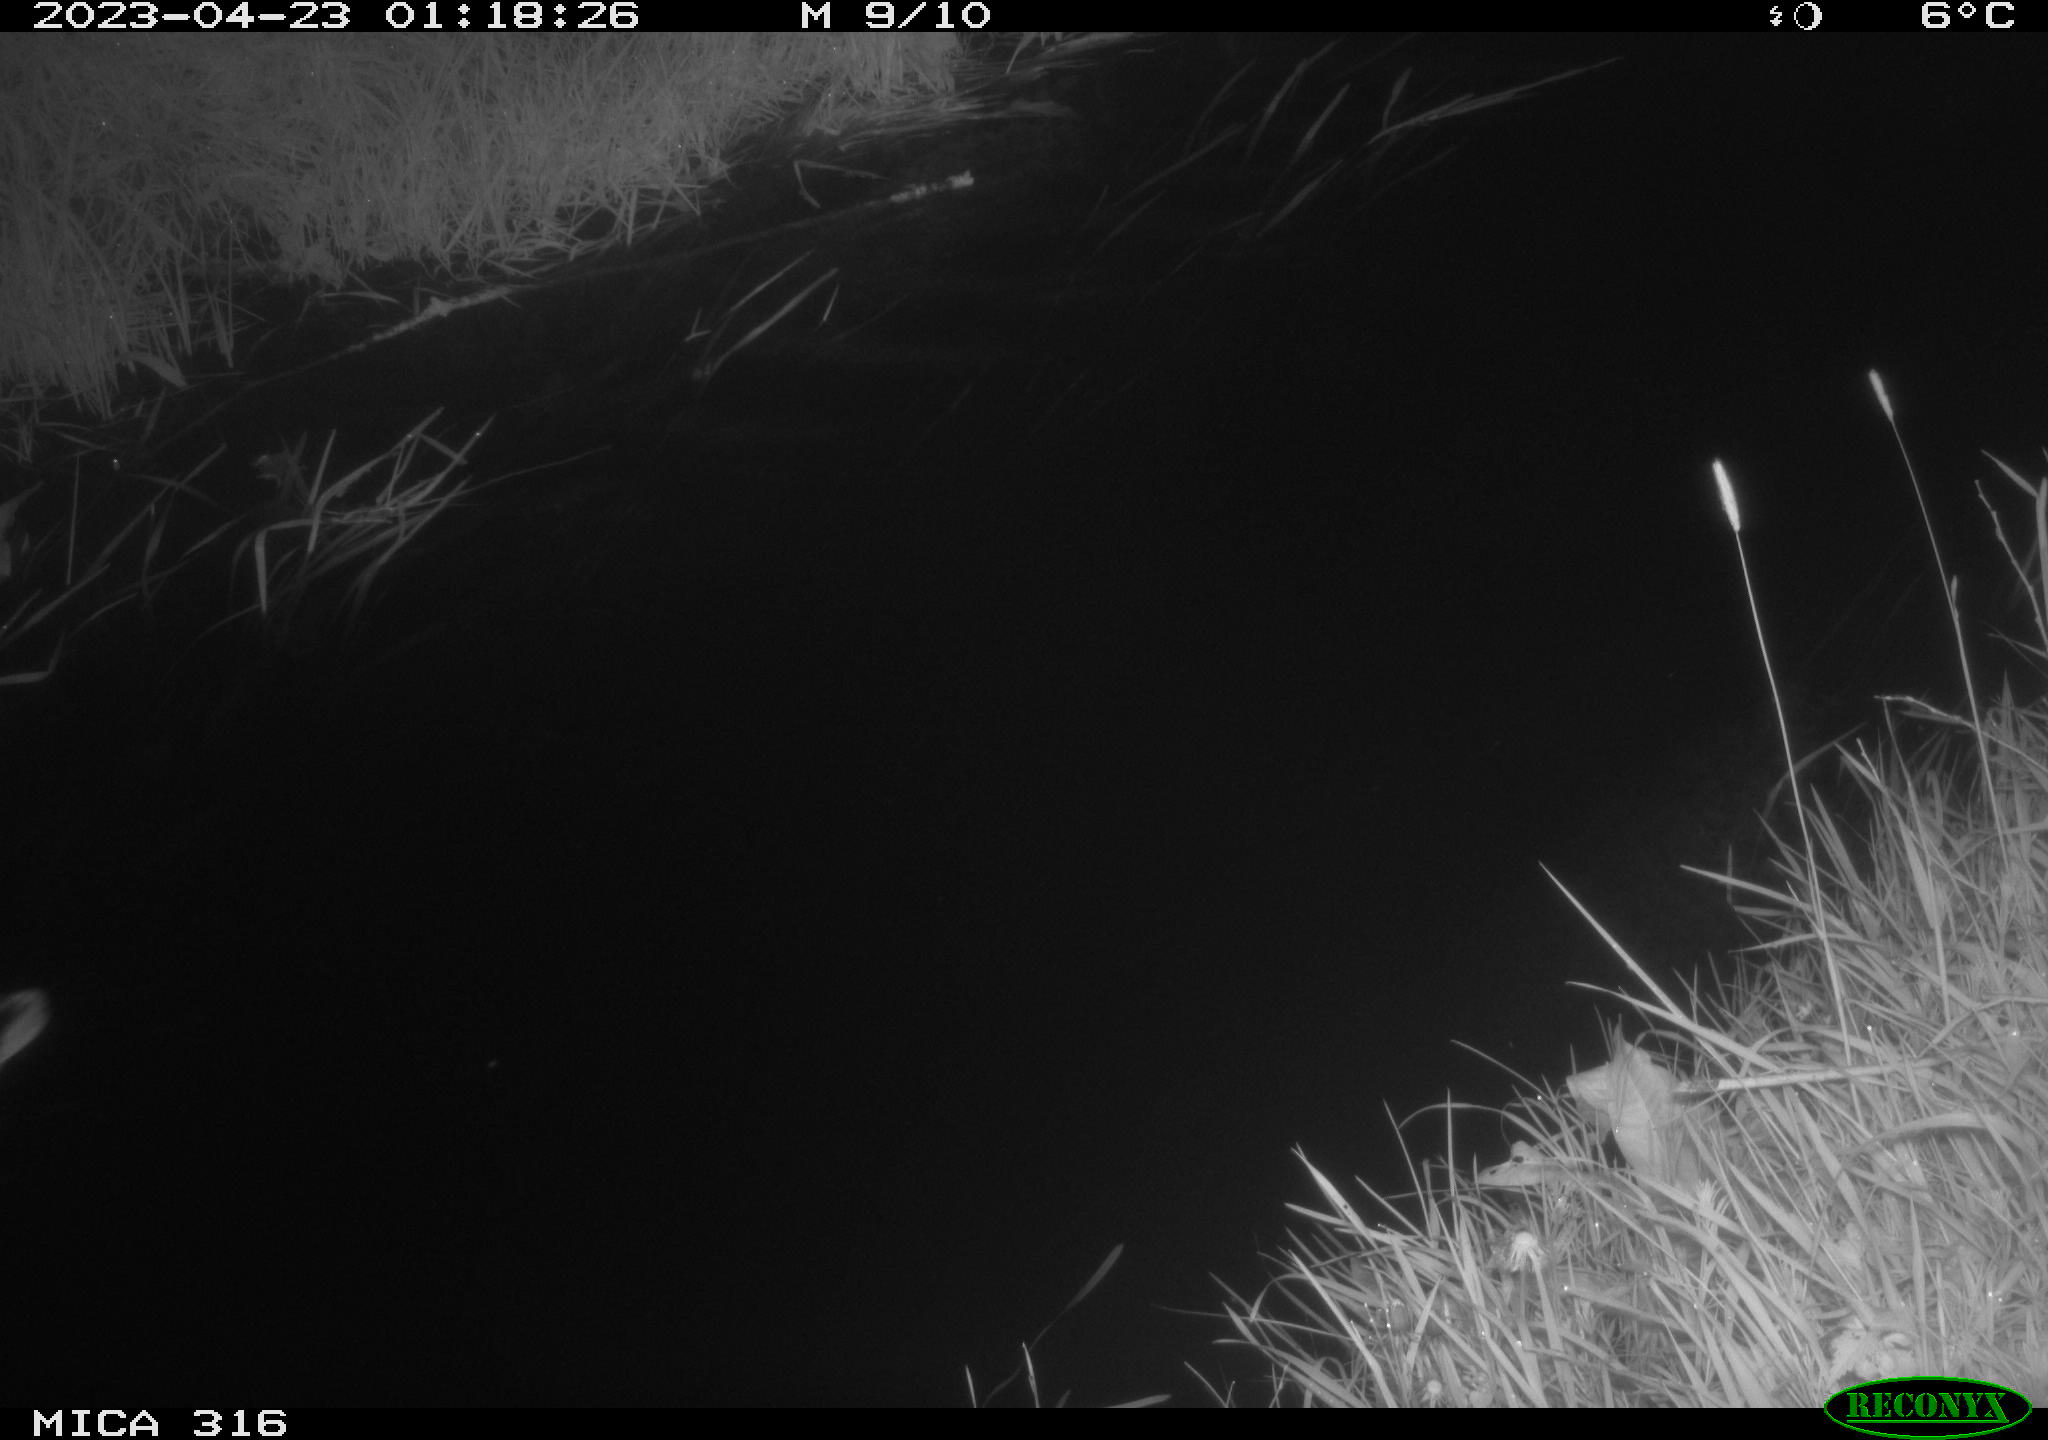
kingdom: Animalia
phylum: Chordata
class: Aves
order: Anseriformes
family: Anatidae
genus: Anas
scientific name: Anas
